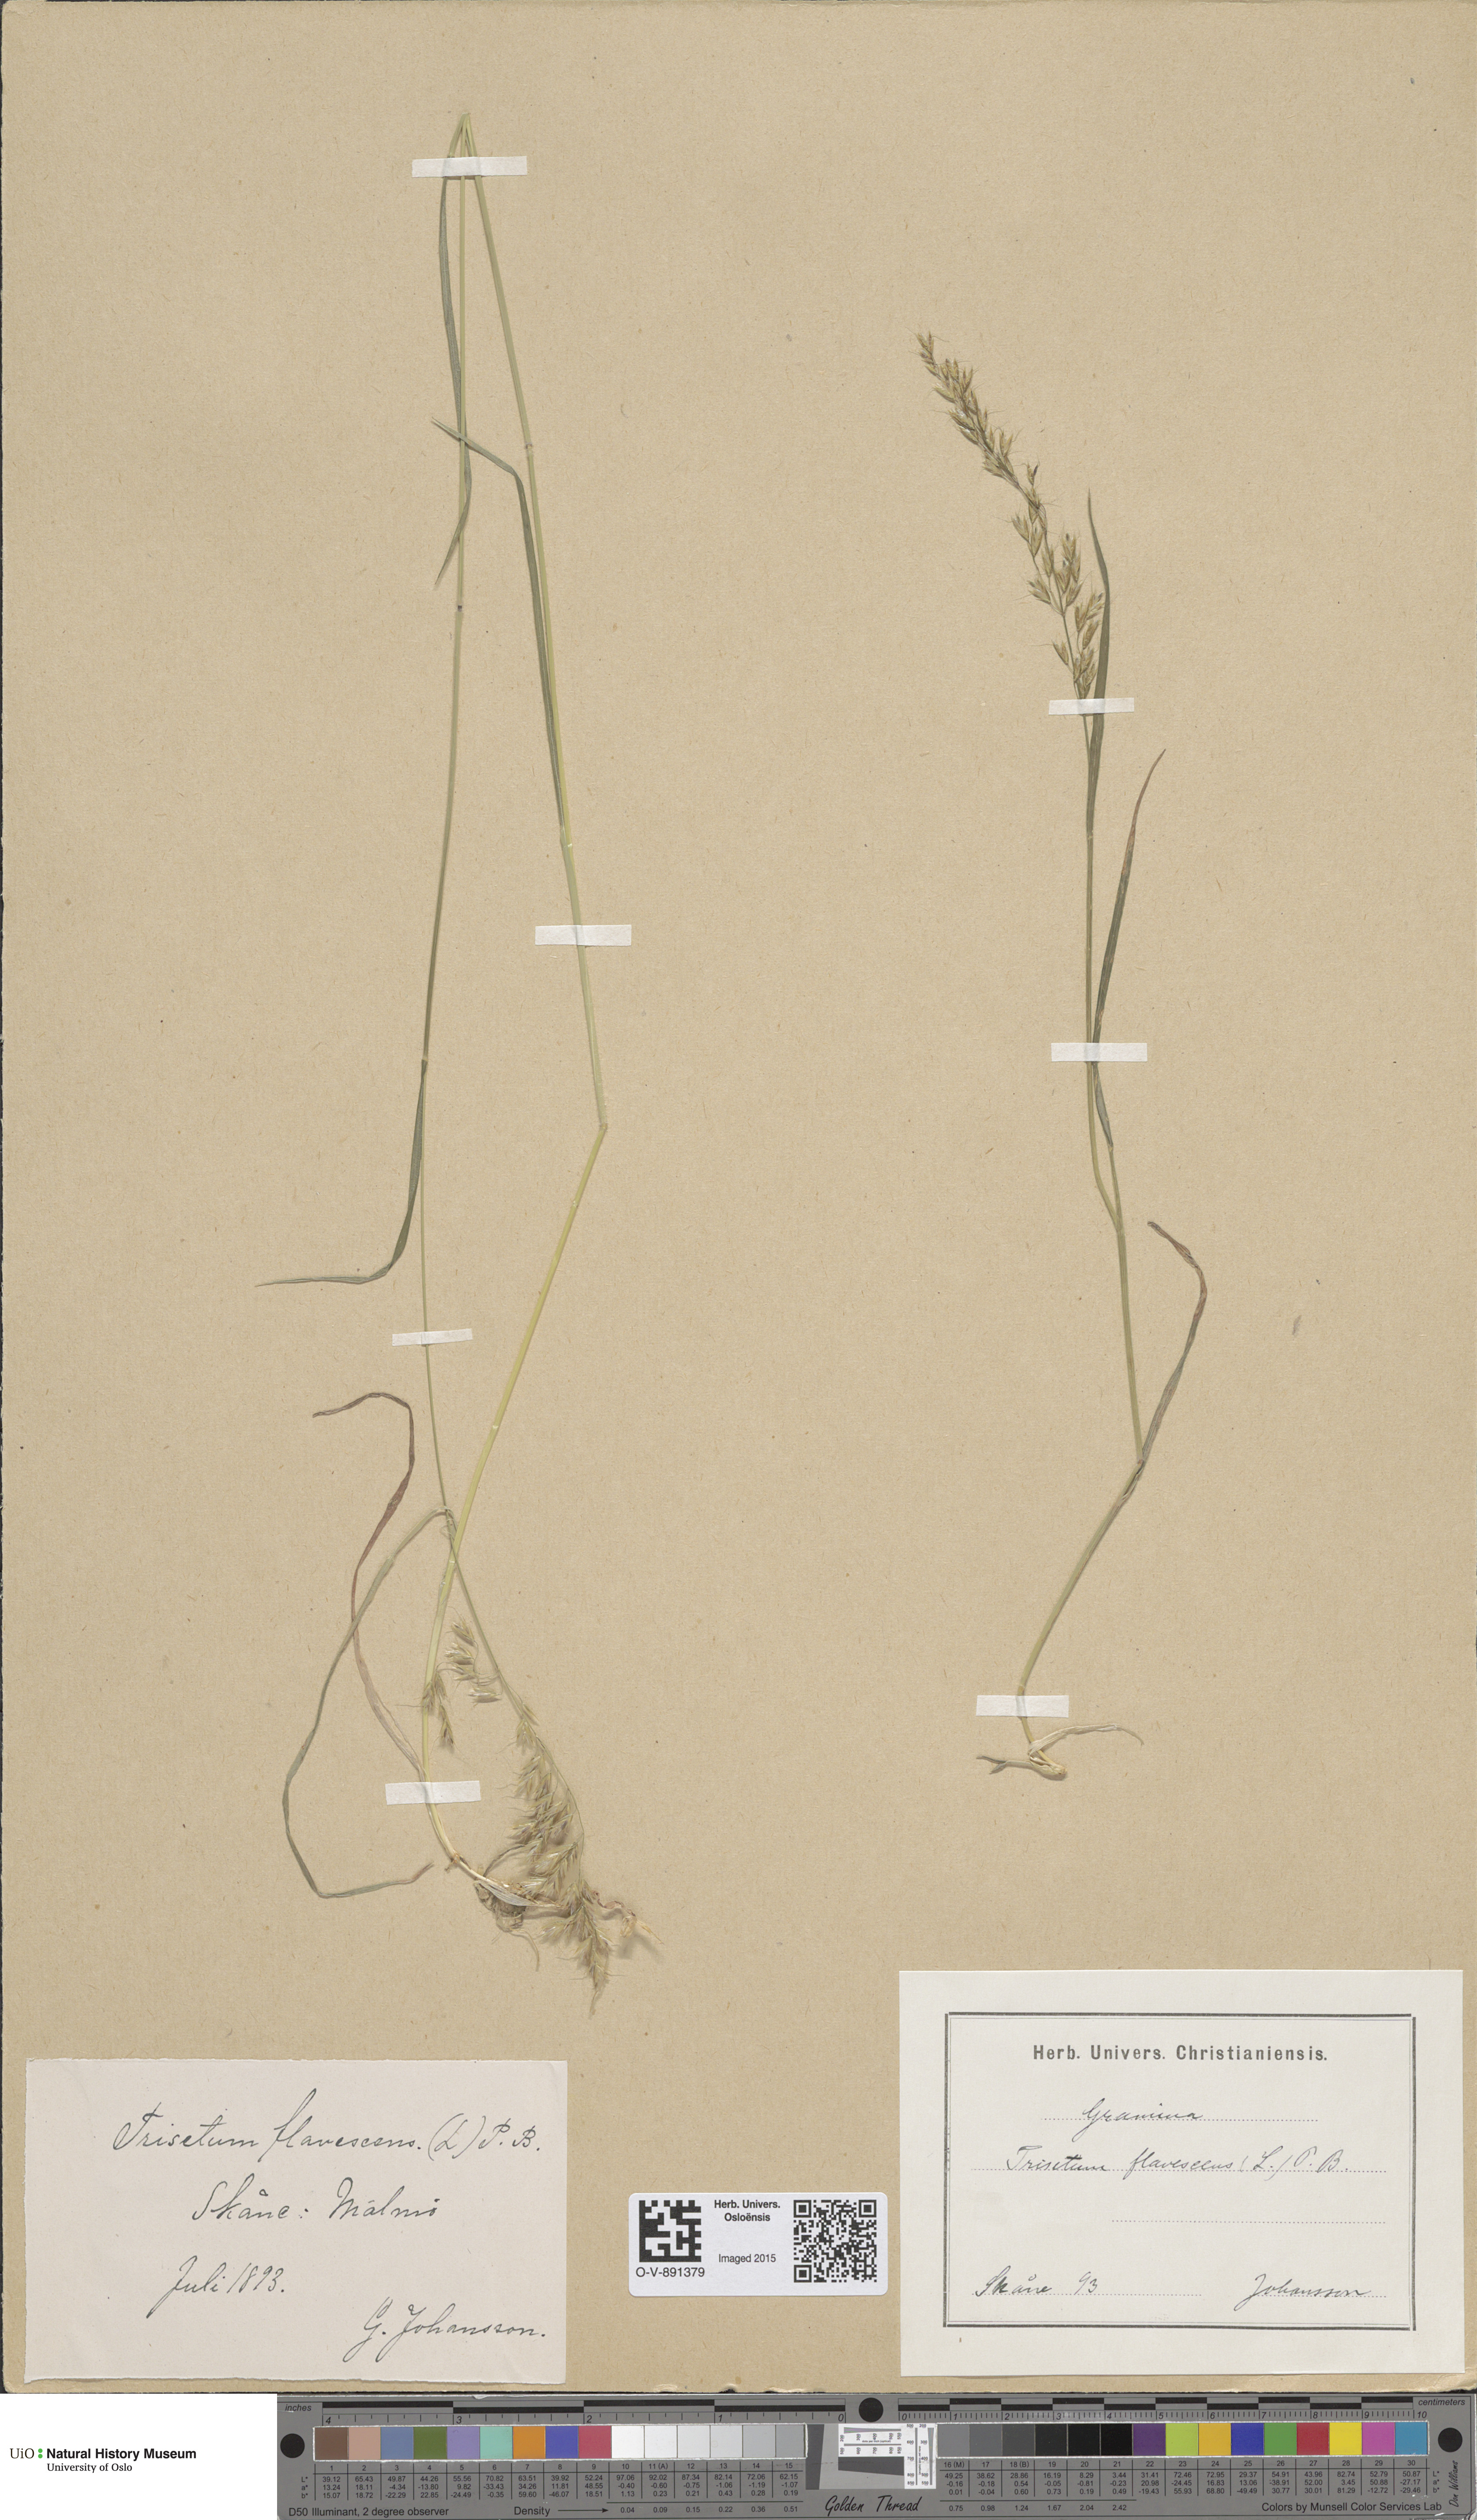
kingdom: Plantae
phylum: Tracheophyta
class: Liliopsida
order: Poales
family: Poaceae
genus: Trisetum
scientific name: Trisetum flavescens
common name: Yellow oat-grass
